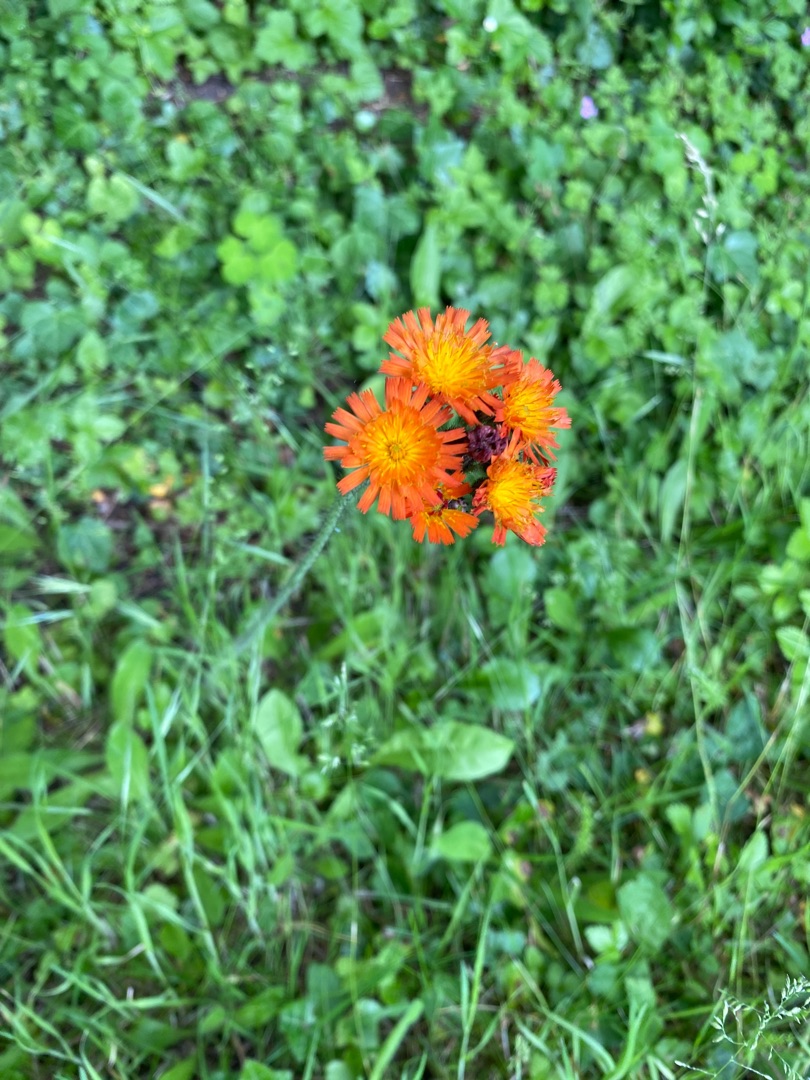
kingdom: Plantae
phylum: Tracheophyta
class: Magnoliopsida
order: Asterales
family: Asteraceae
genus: Pilosella
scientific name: Pilosella aurantiaca
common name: Pomerans-høgeurt
